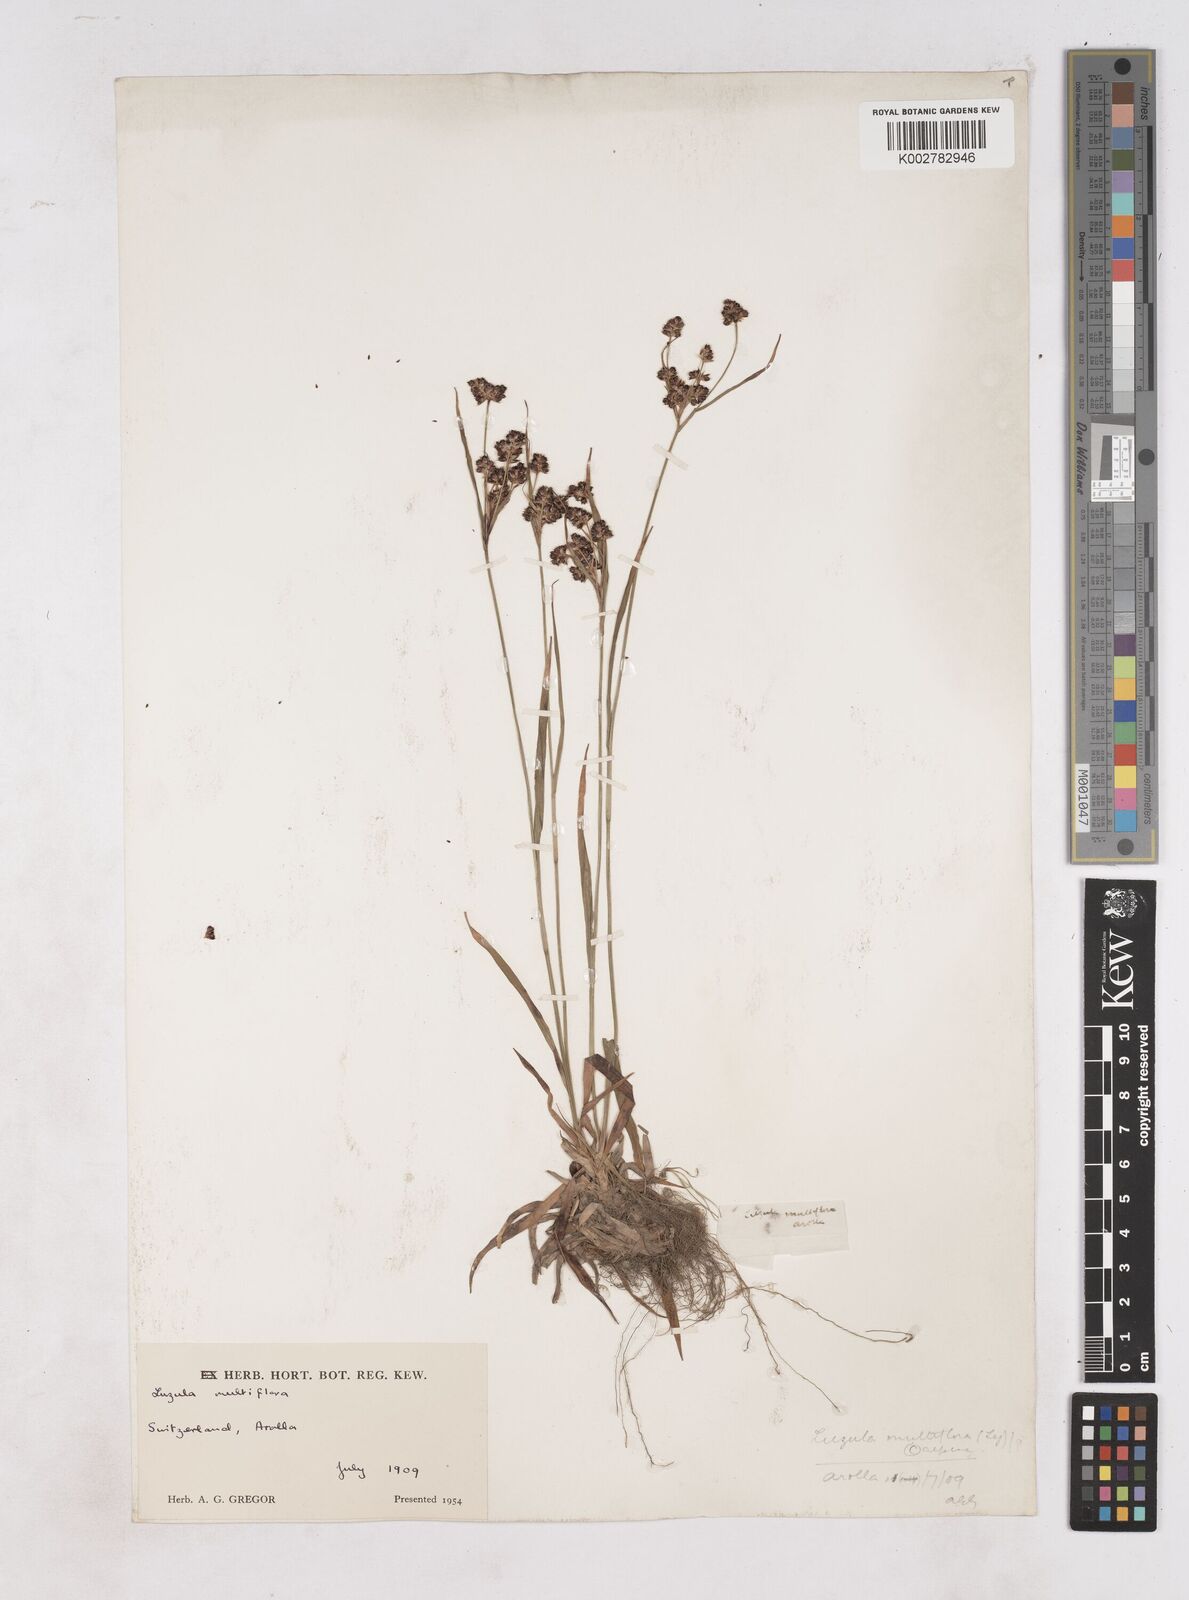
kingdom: Plantae
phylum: Tracheophyta
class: Liliopsida
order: Poales
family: Juncaceae
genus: Luzula
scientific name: Luzula campestris
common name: Field wood-rush
